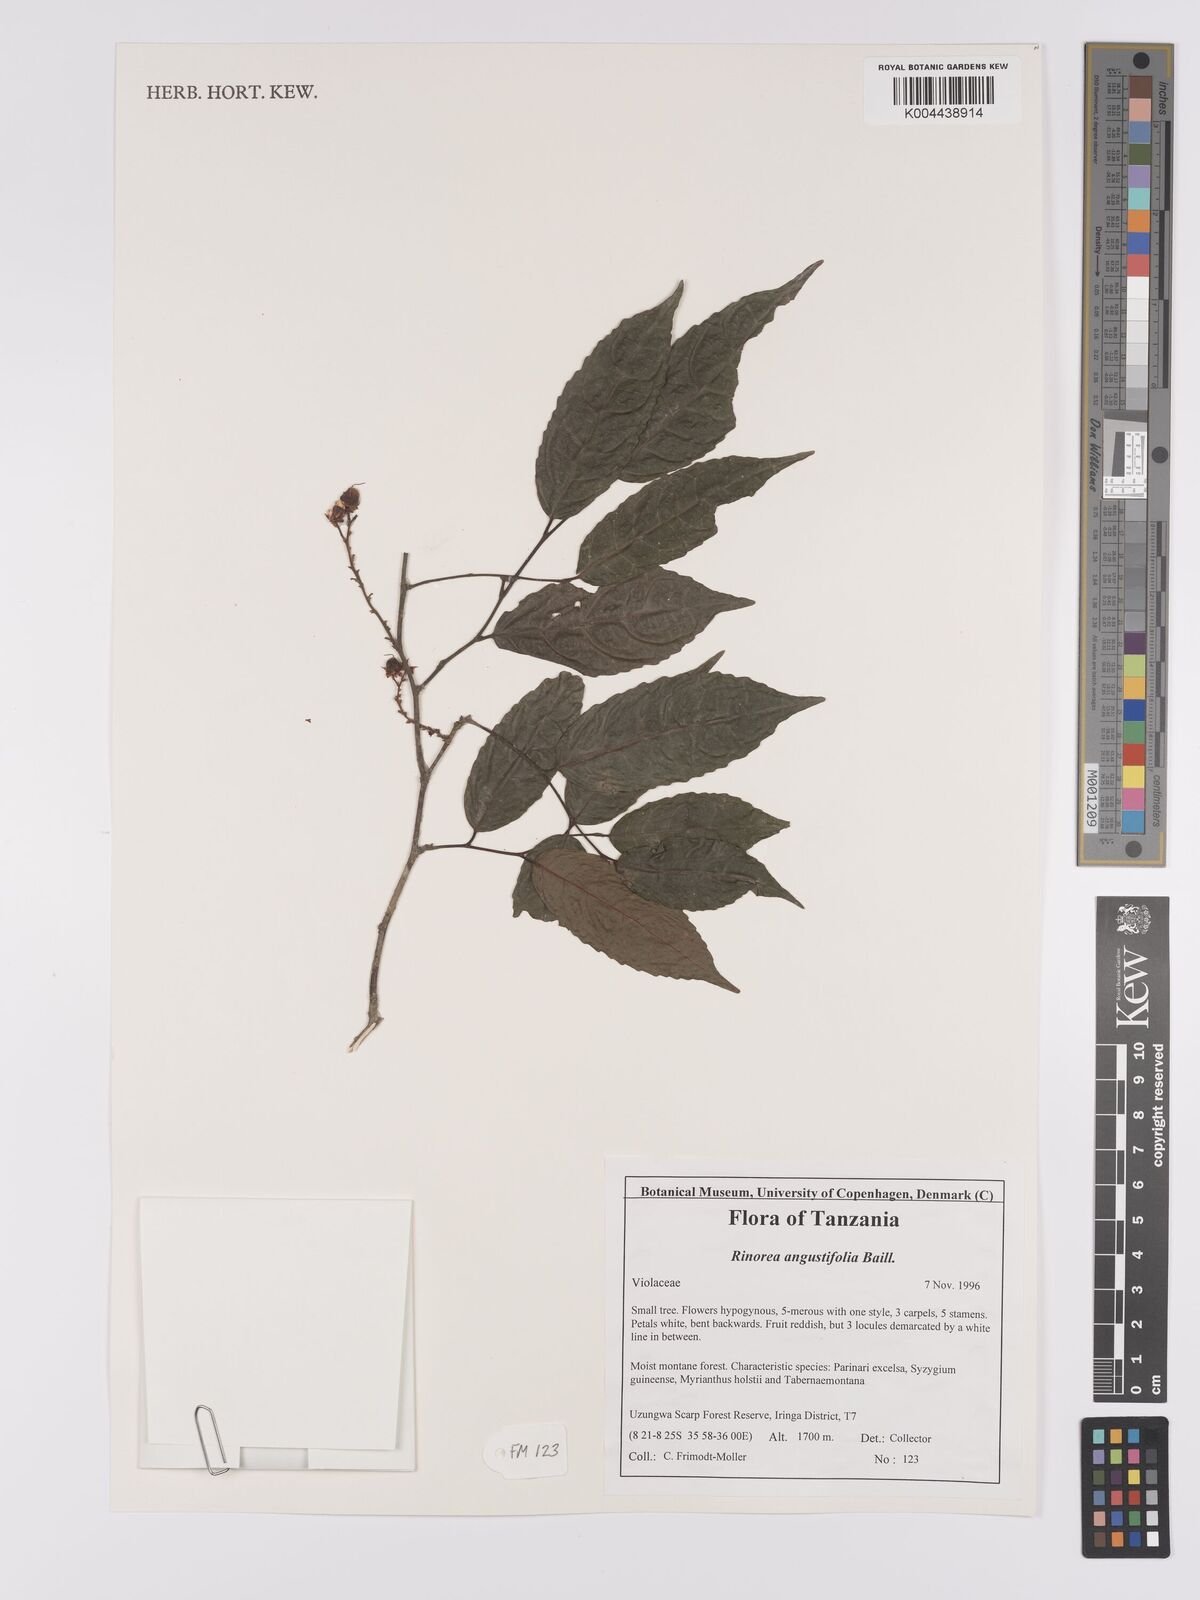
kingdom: Plantae
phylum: Tracheophyta
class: Magnoliopsida
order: Malpighiales
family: Violaceae
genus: Rinorea
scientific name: Rinorea angustifolia
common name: White violet-bush
